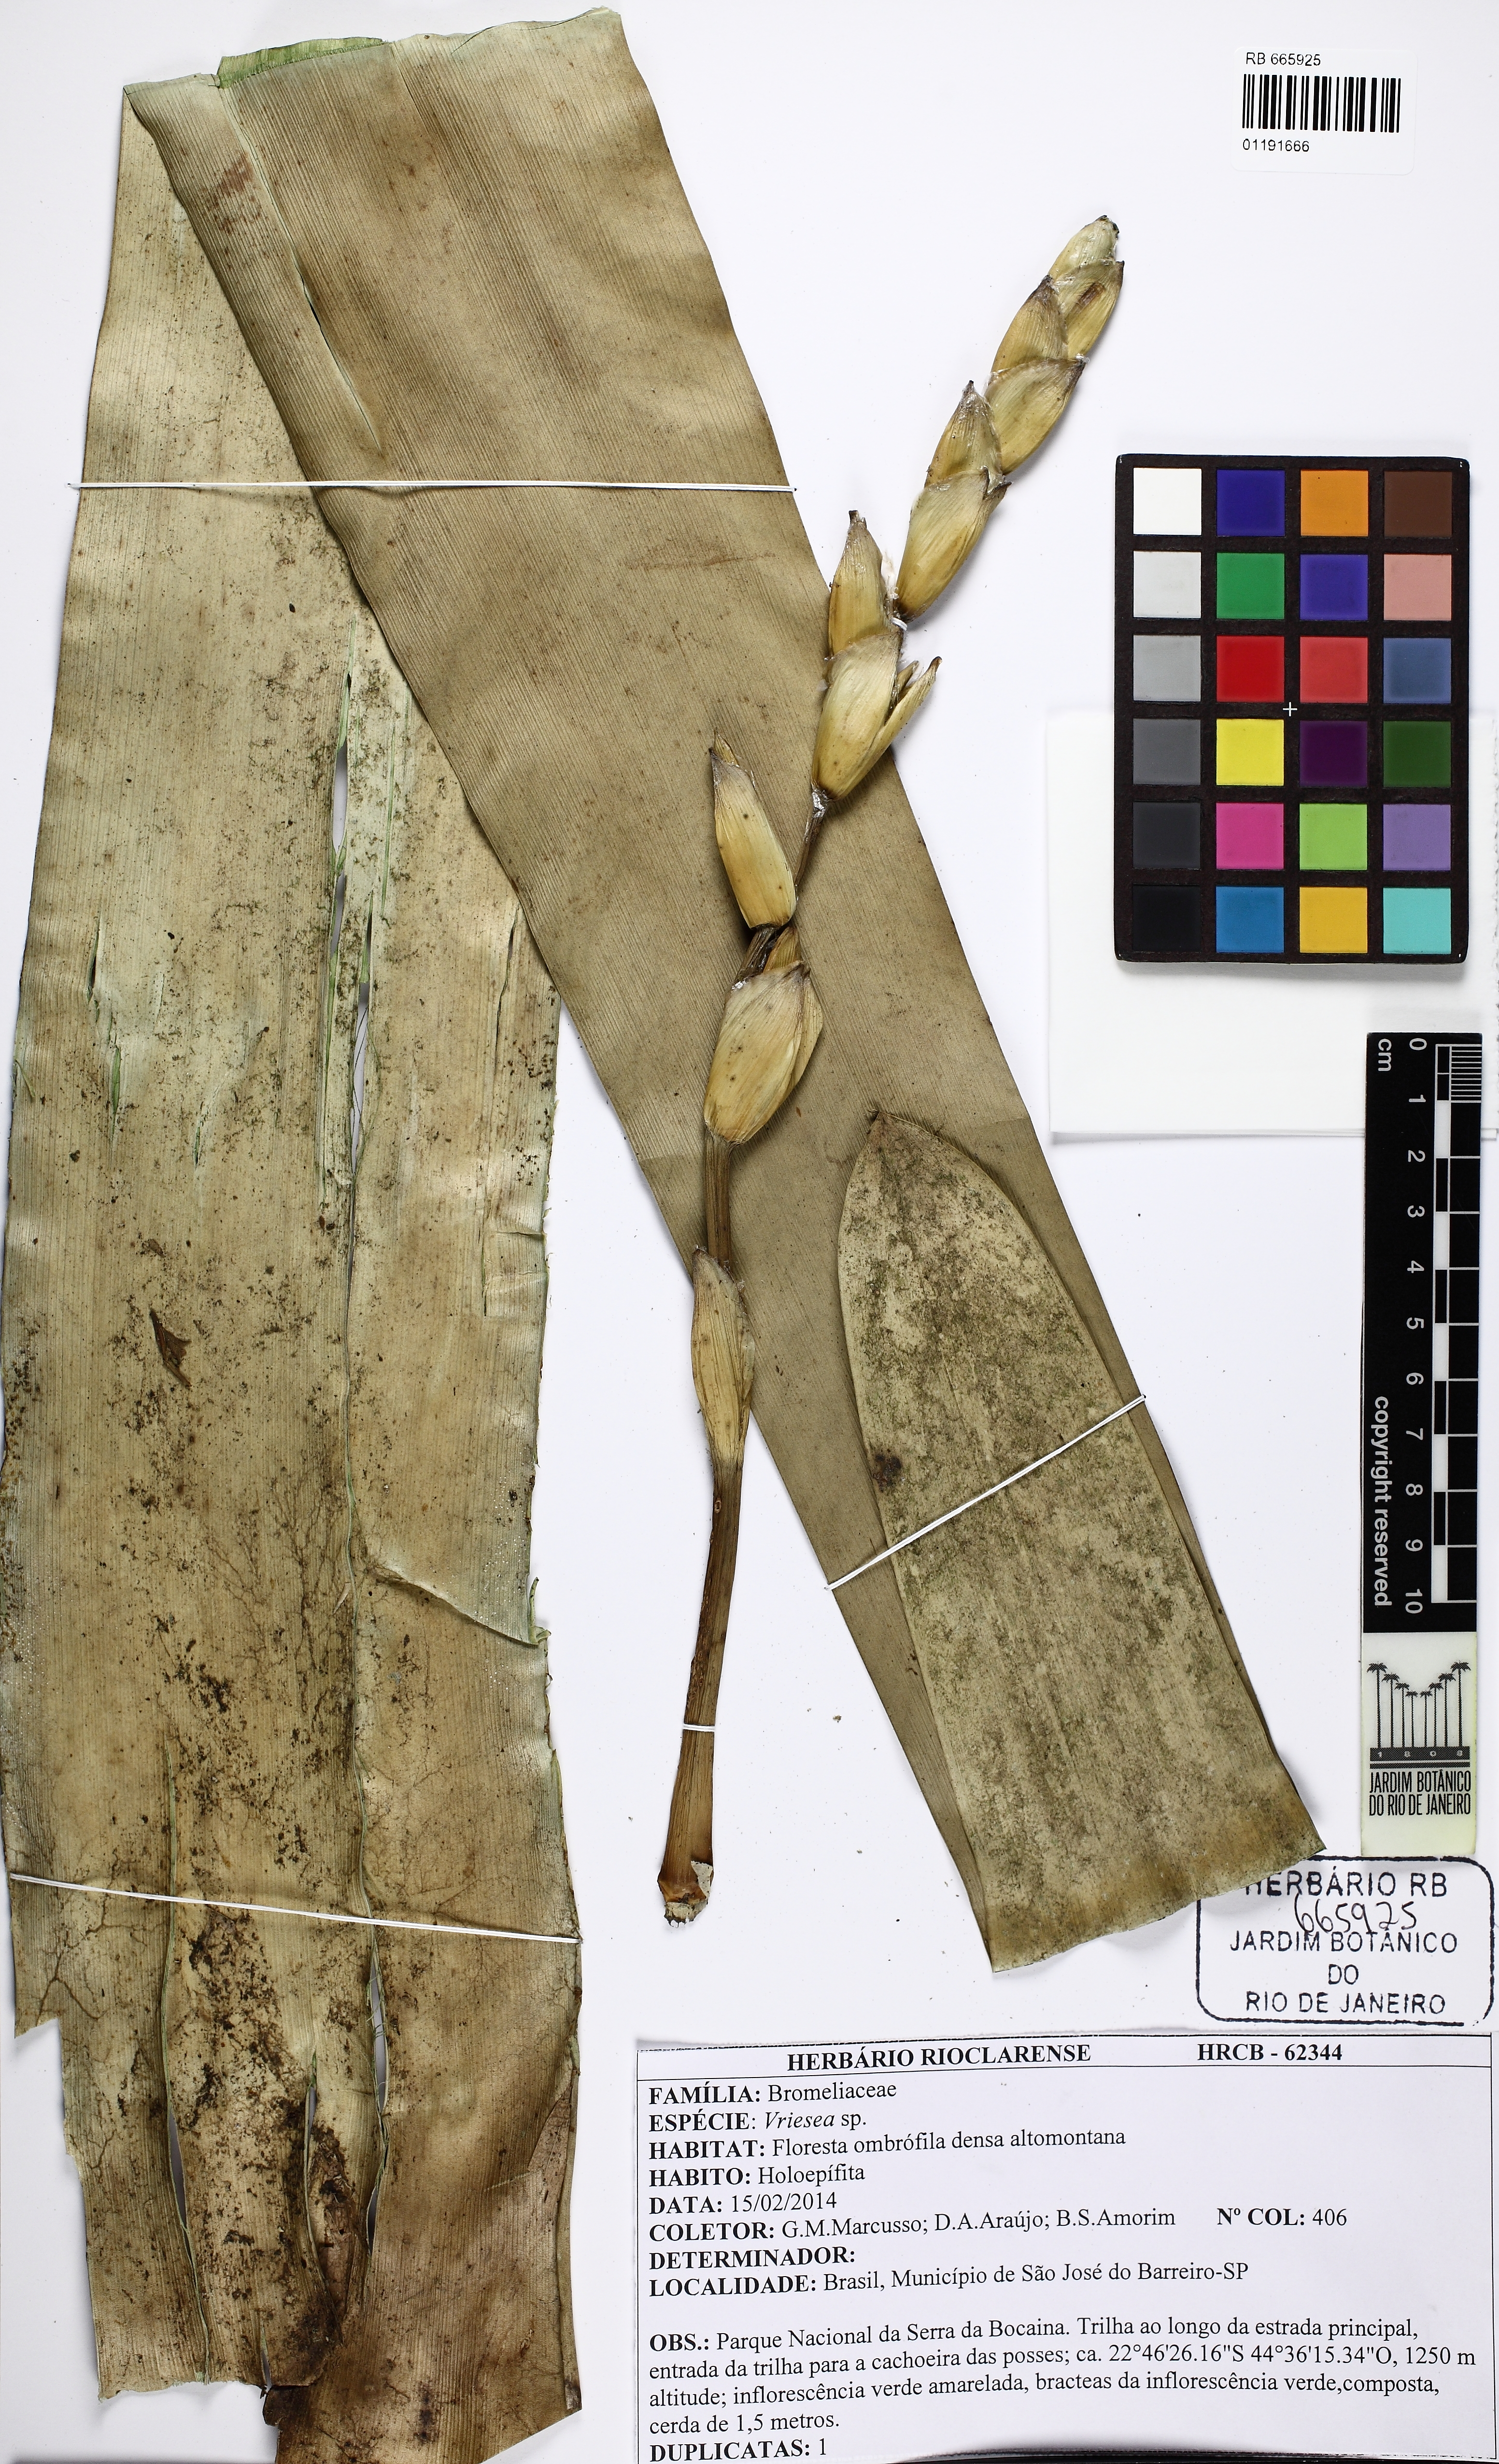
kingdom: Plantae
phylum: Tracheophyta
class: Liliopsida
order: Poales
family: Bromeliaceae
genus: Vriesea
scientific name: Vriesea
